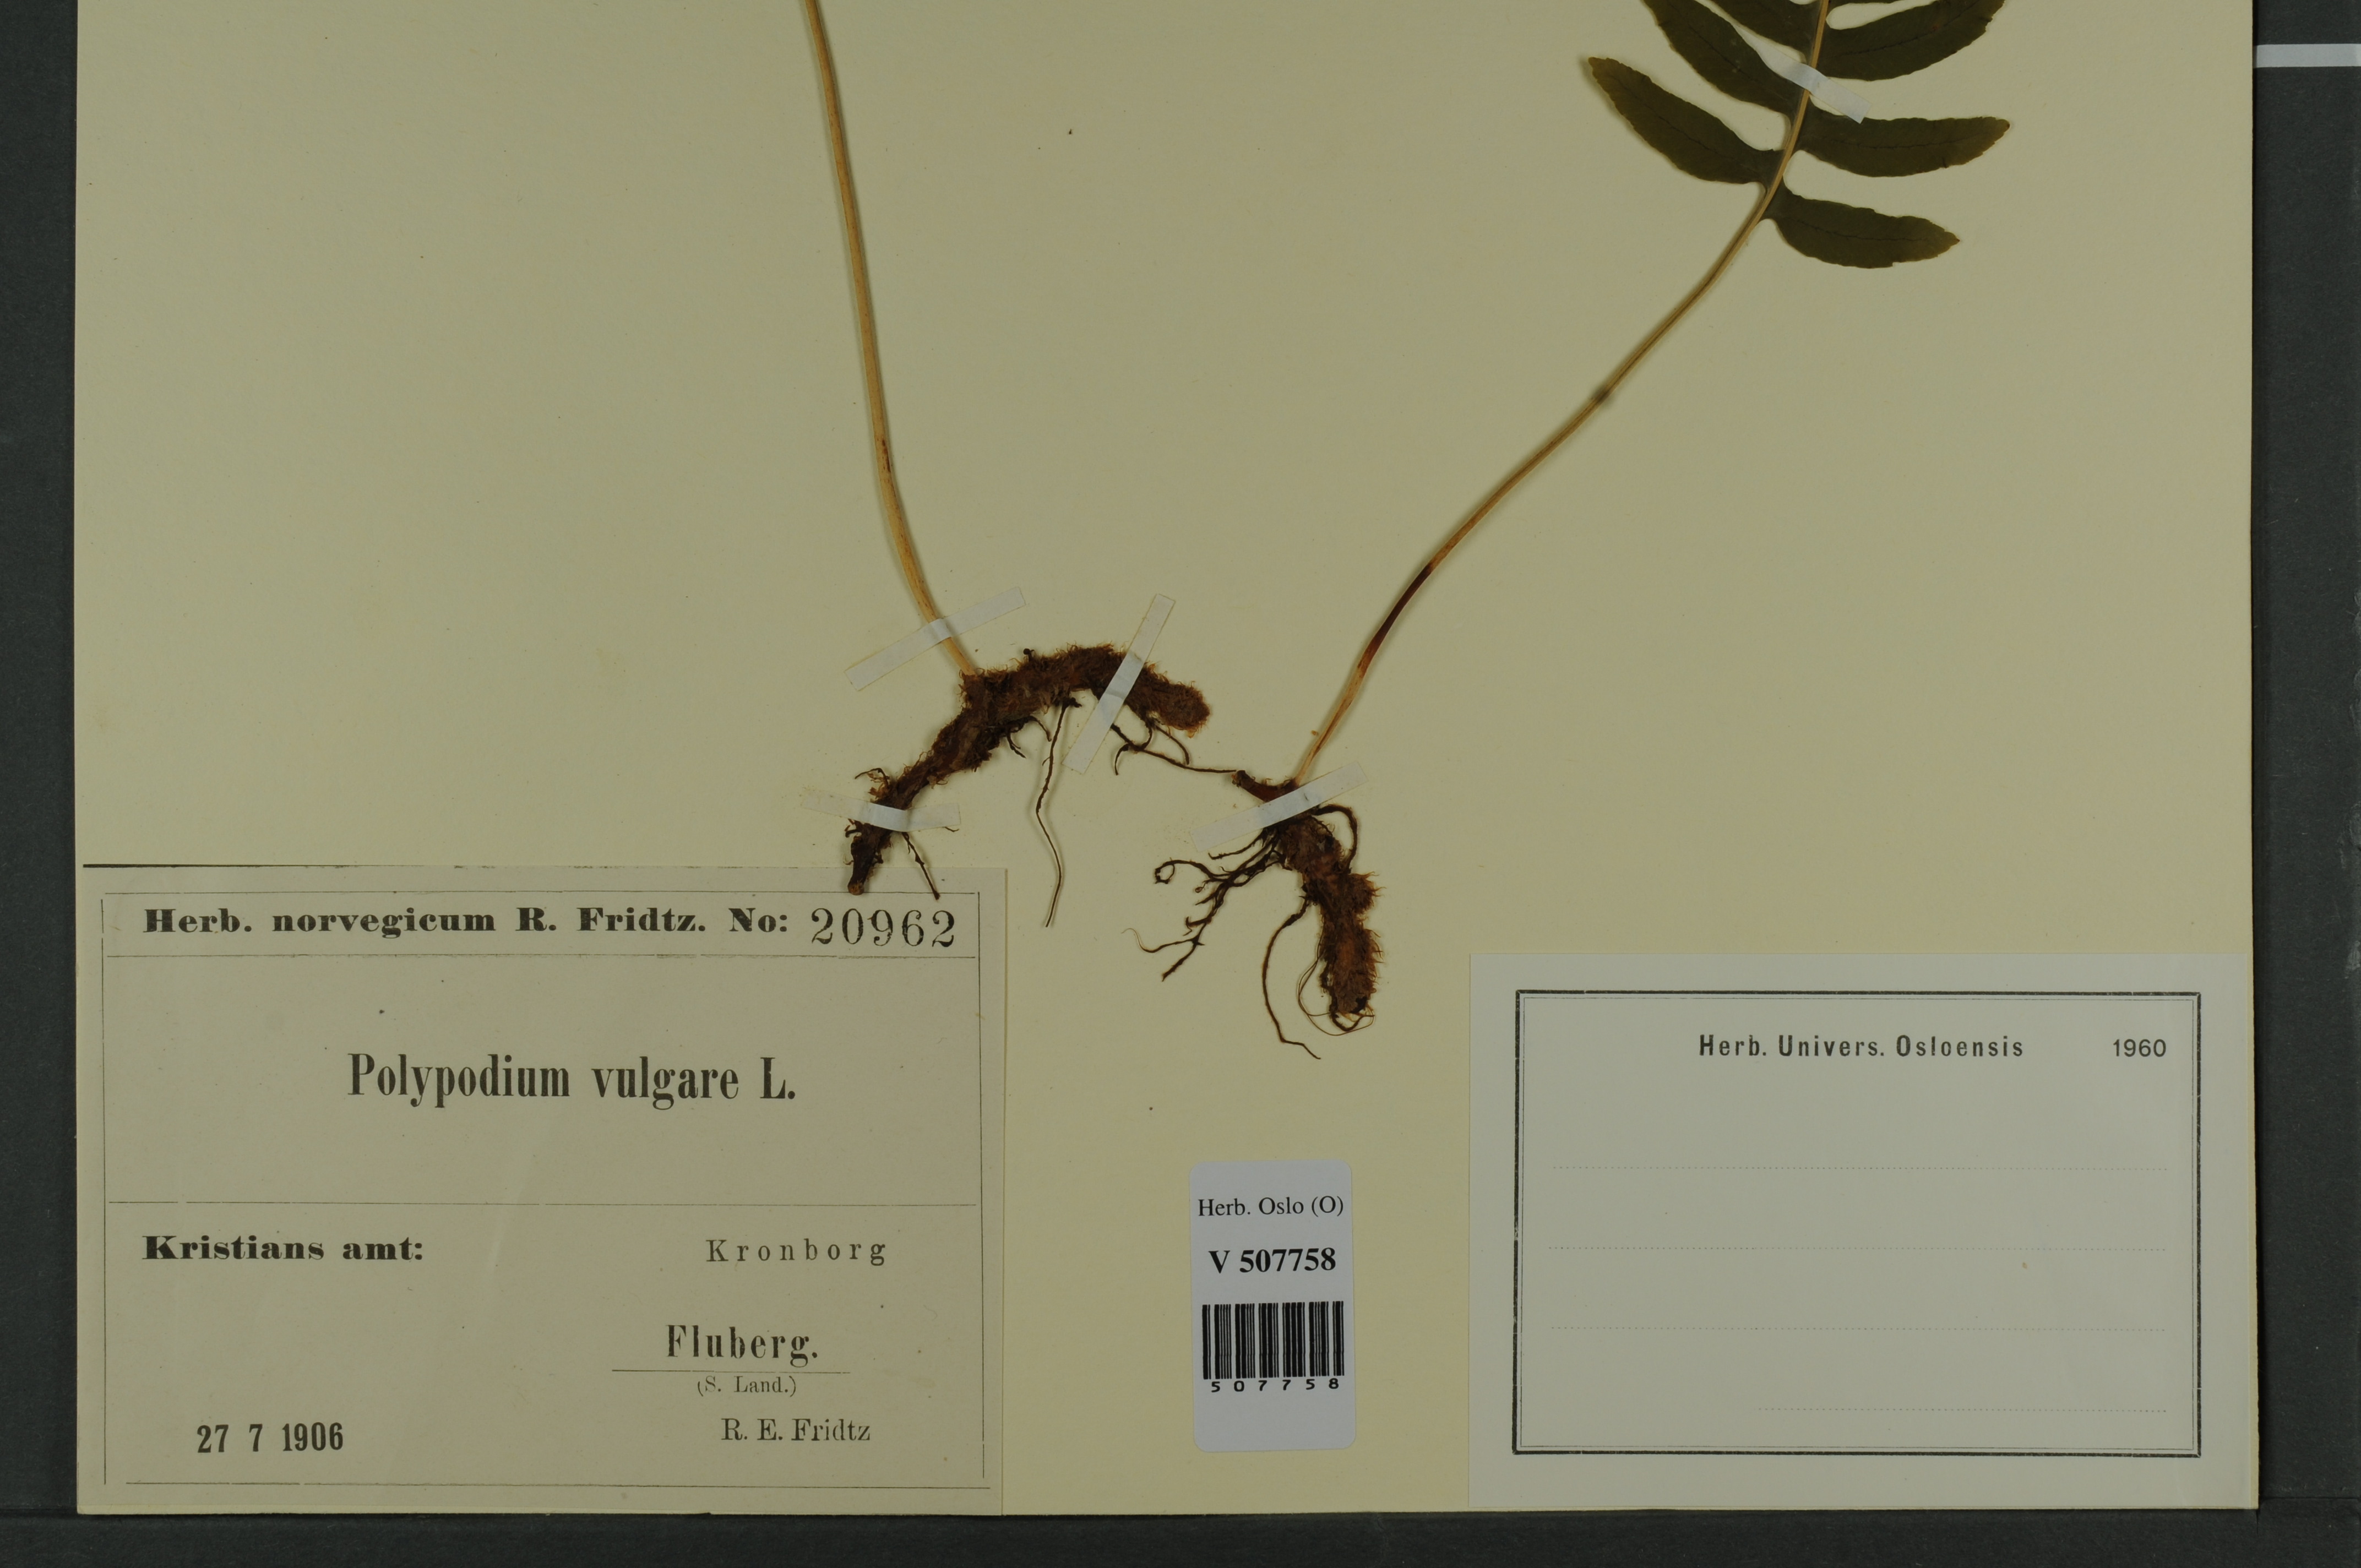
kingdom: Plantae
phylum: Tracheophyta
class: Polypodiopsida
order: Polypodiales
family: Polypodiaceae
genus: Polypodium
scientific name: Polypodium vulgare
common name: Common polypody
